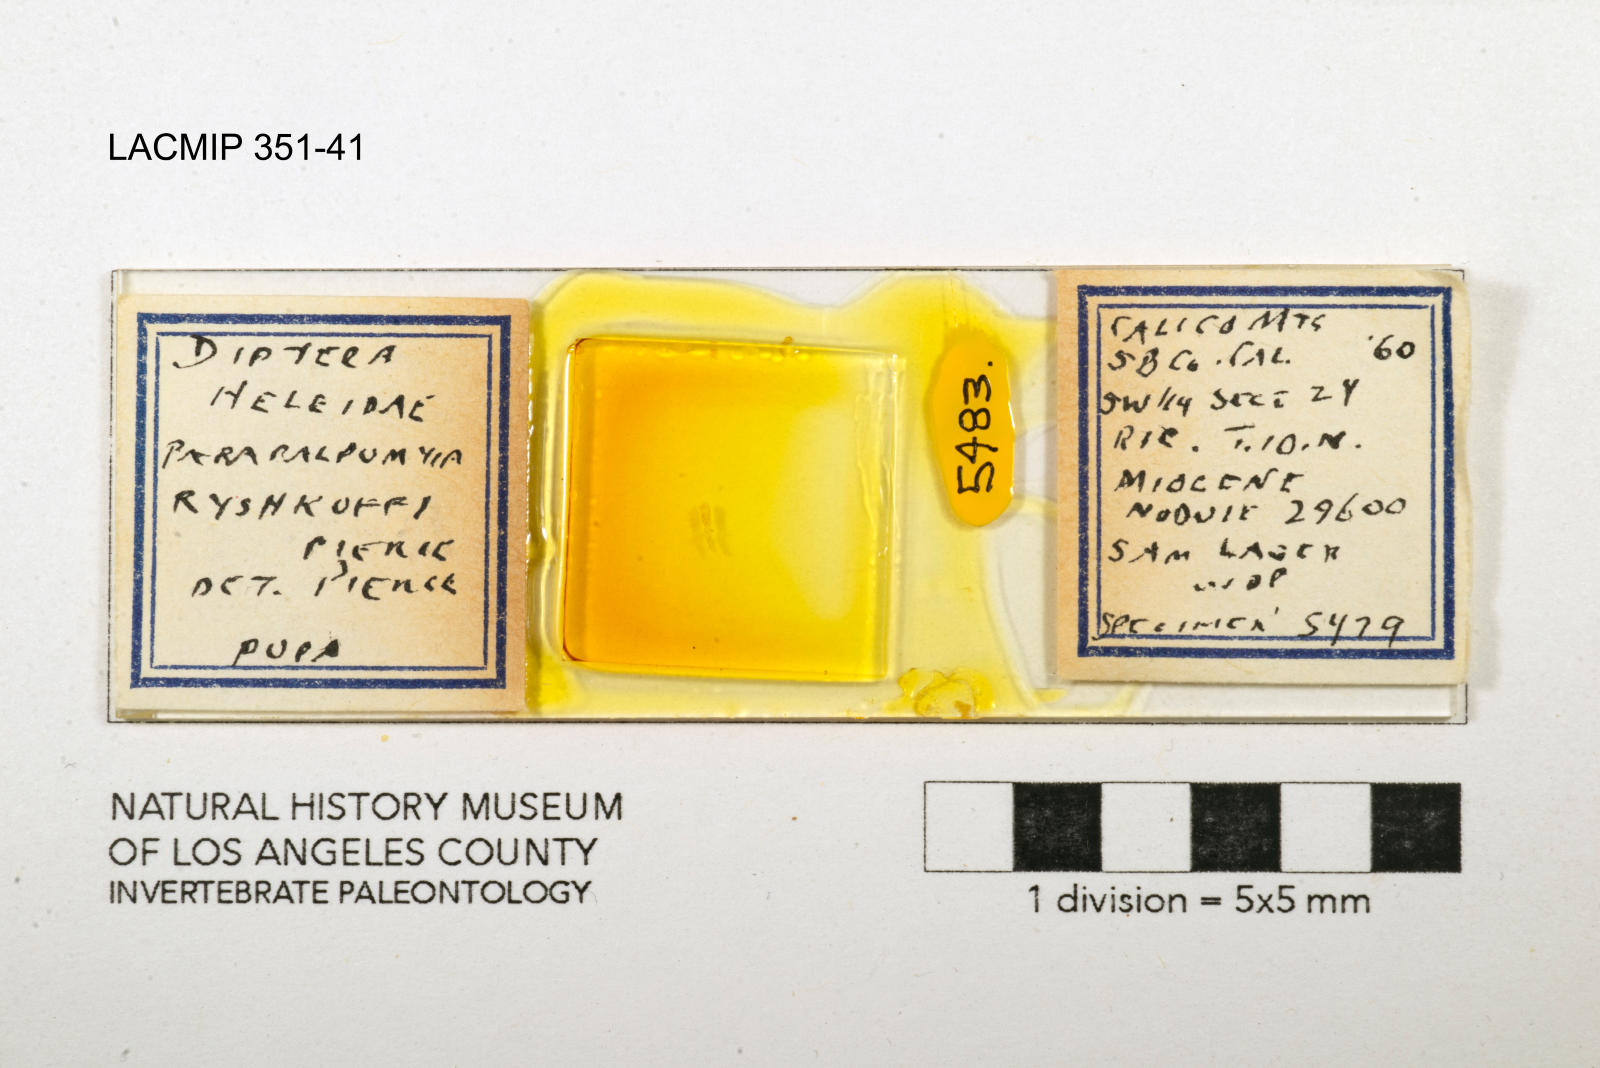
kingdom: Animalia
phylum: Arthropoda
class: Insecta
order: Diptera
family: Ceratopogonidae
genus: Palpomyia
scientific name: Palpomyia ryshkoffi
